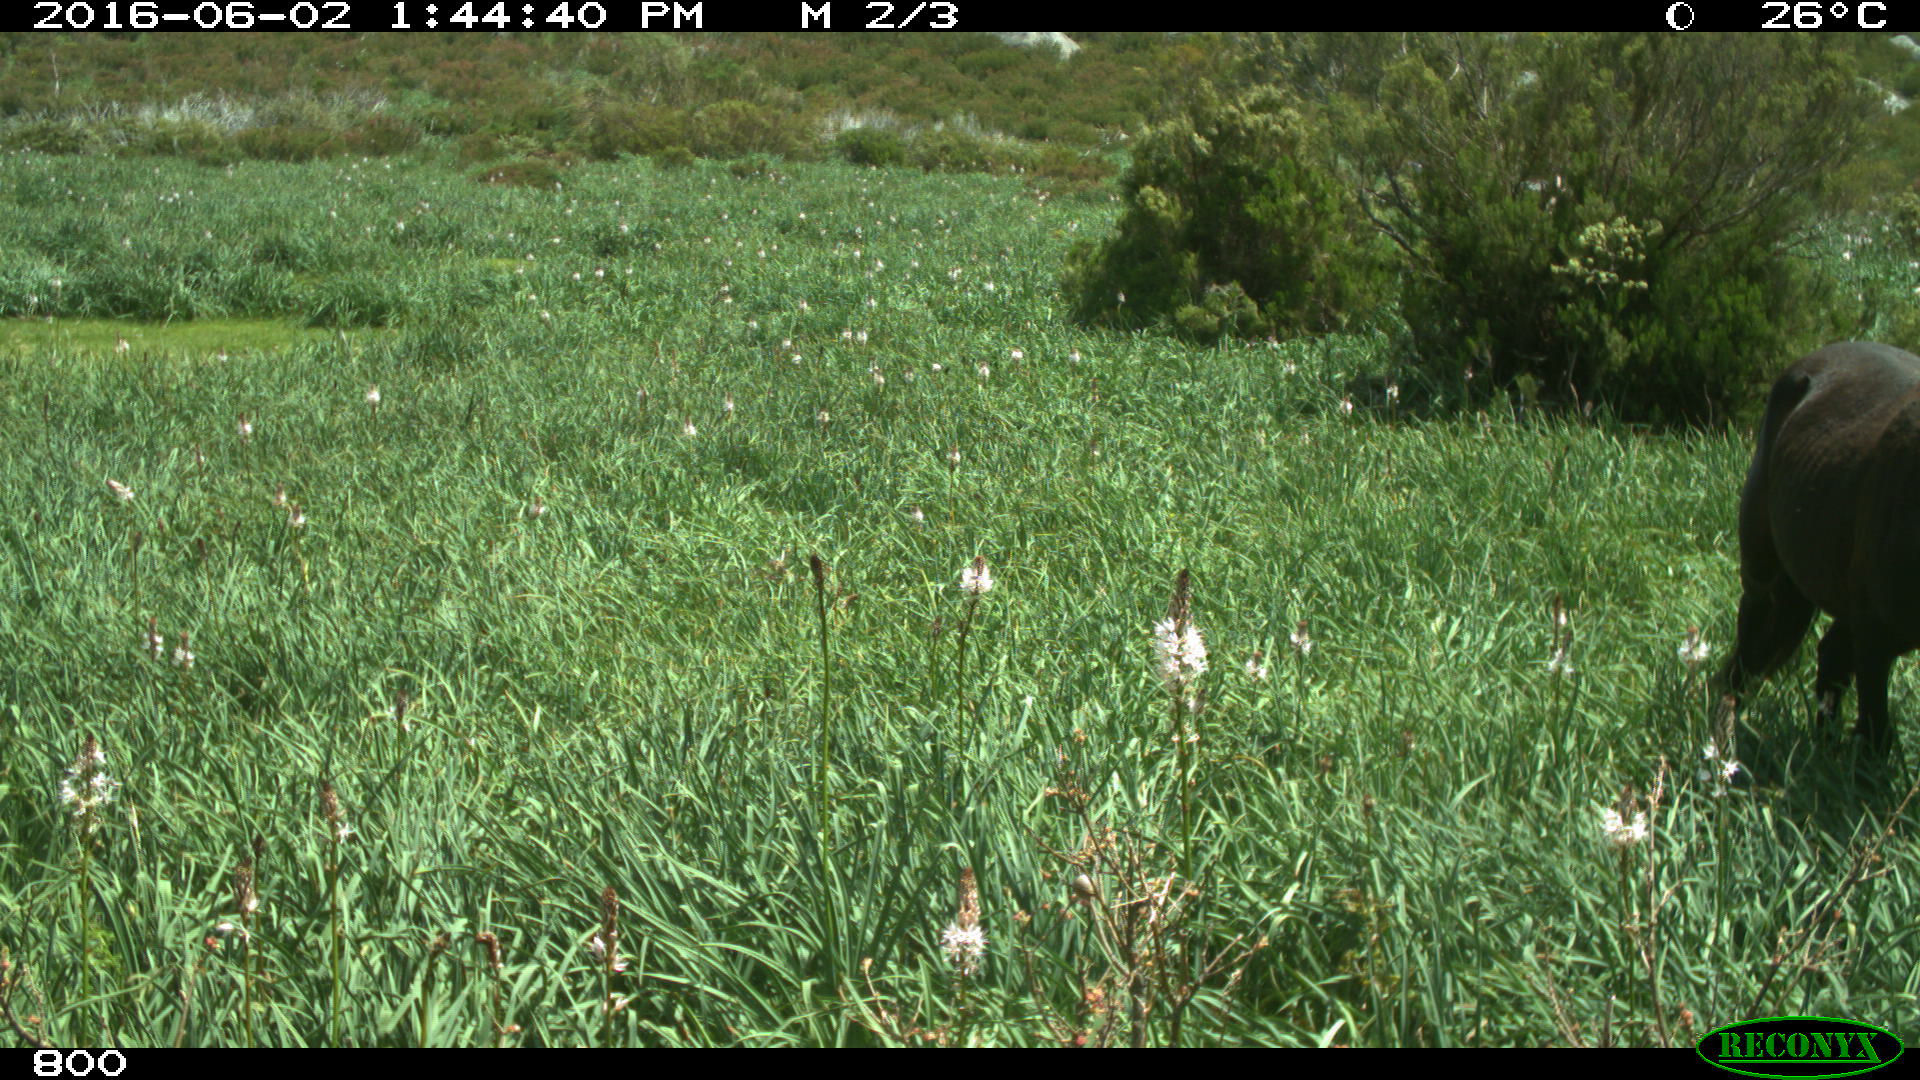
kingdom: Animalia
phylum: Chordata
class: Mammalia
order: Perissodactyla
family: Equidae
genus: Equus
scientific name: Equus caballus
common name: Horse
